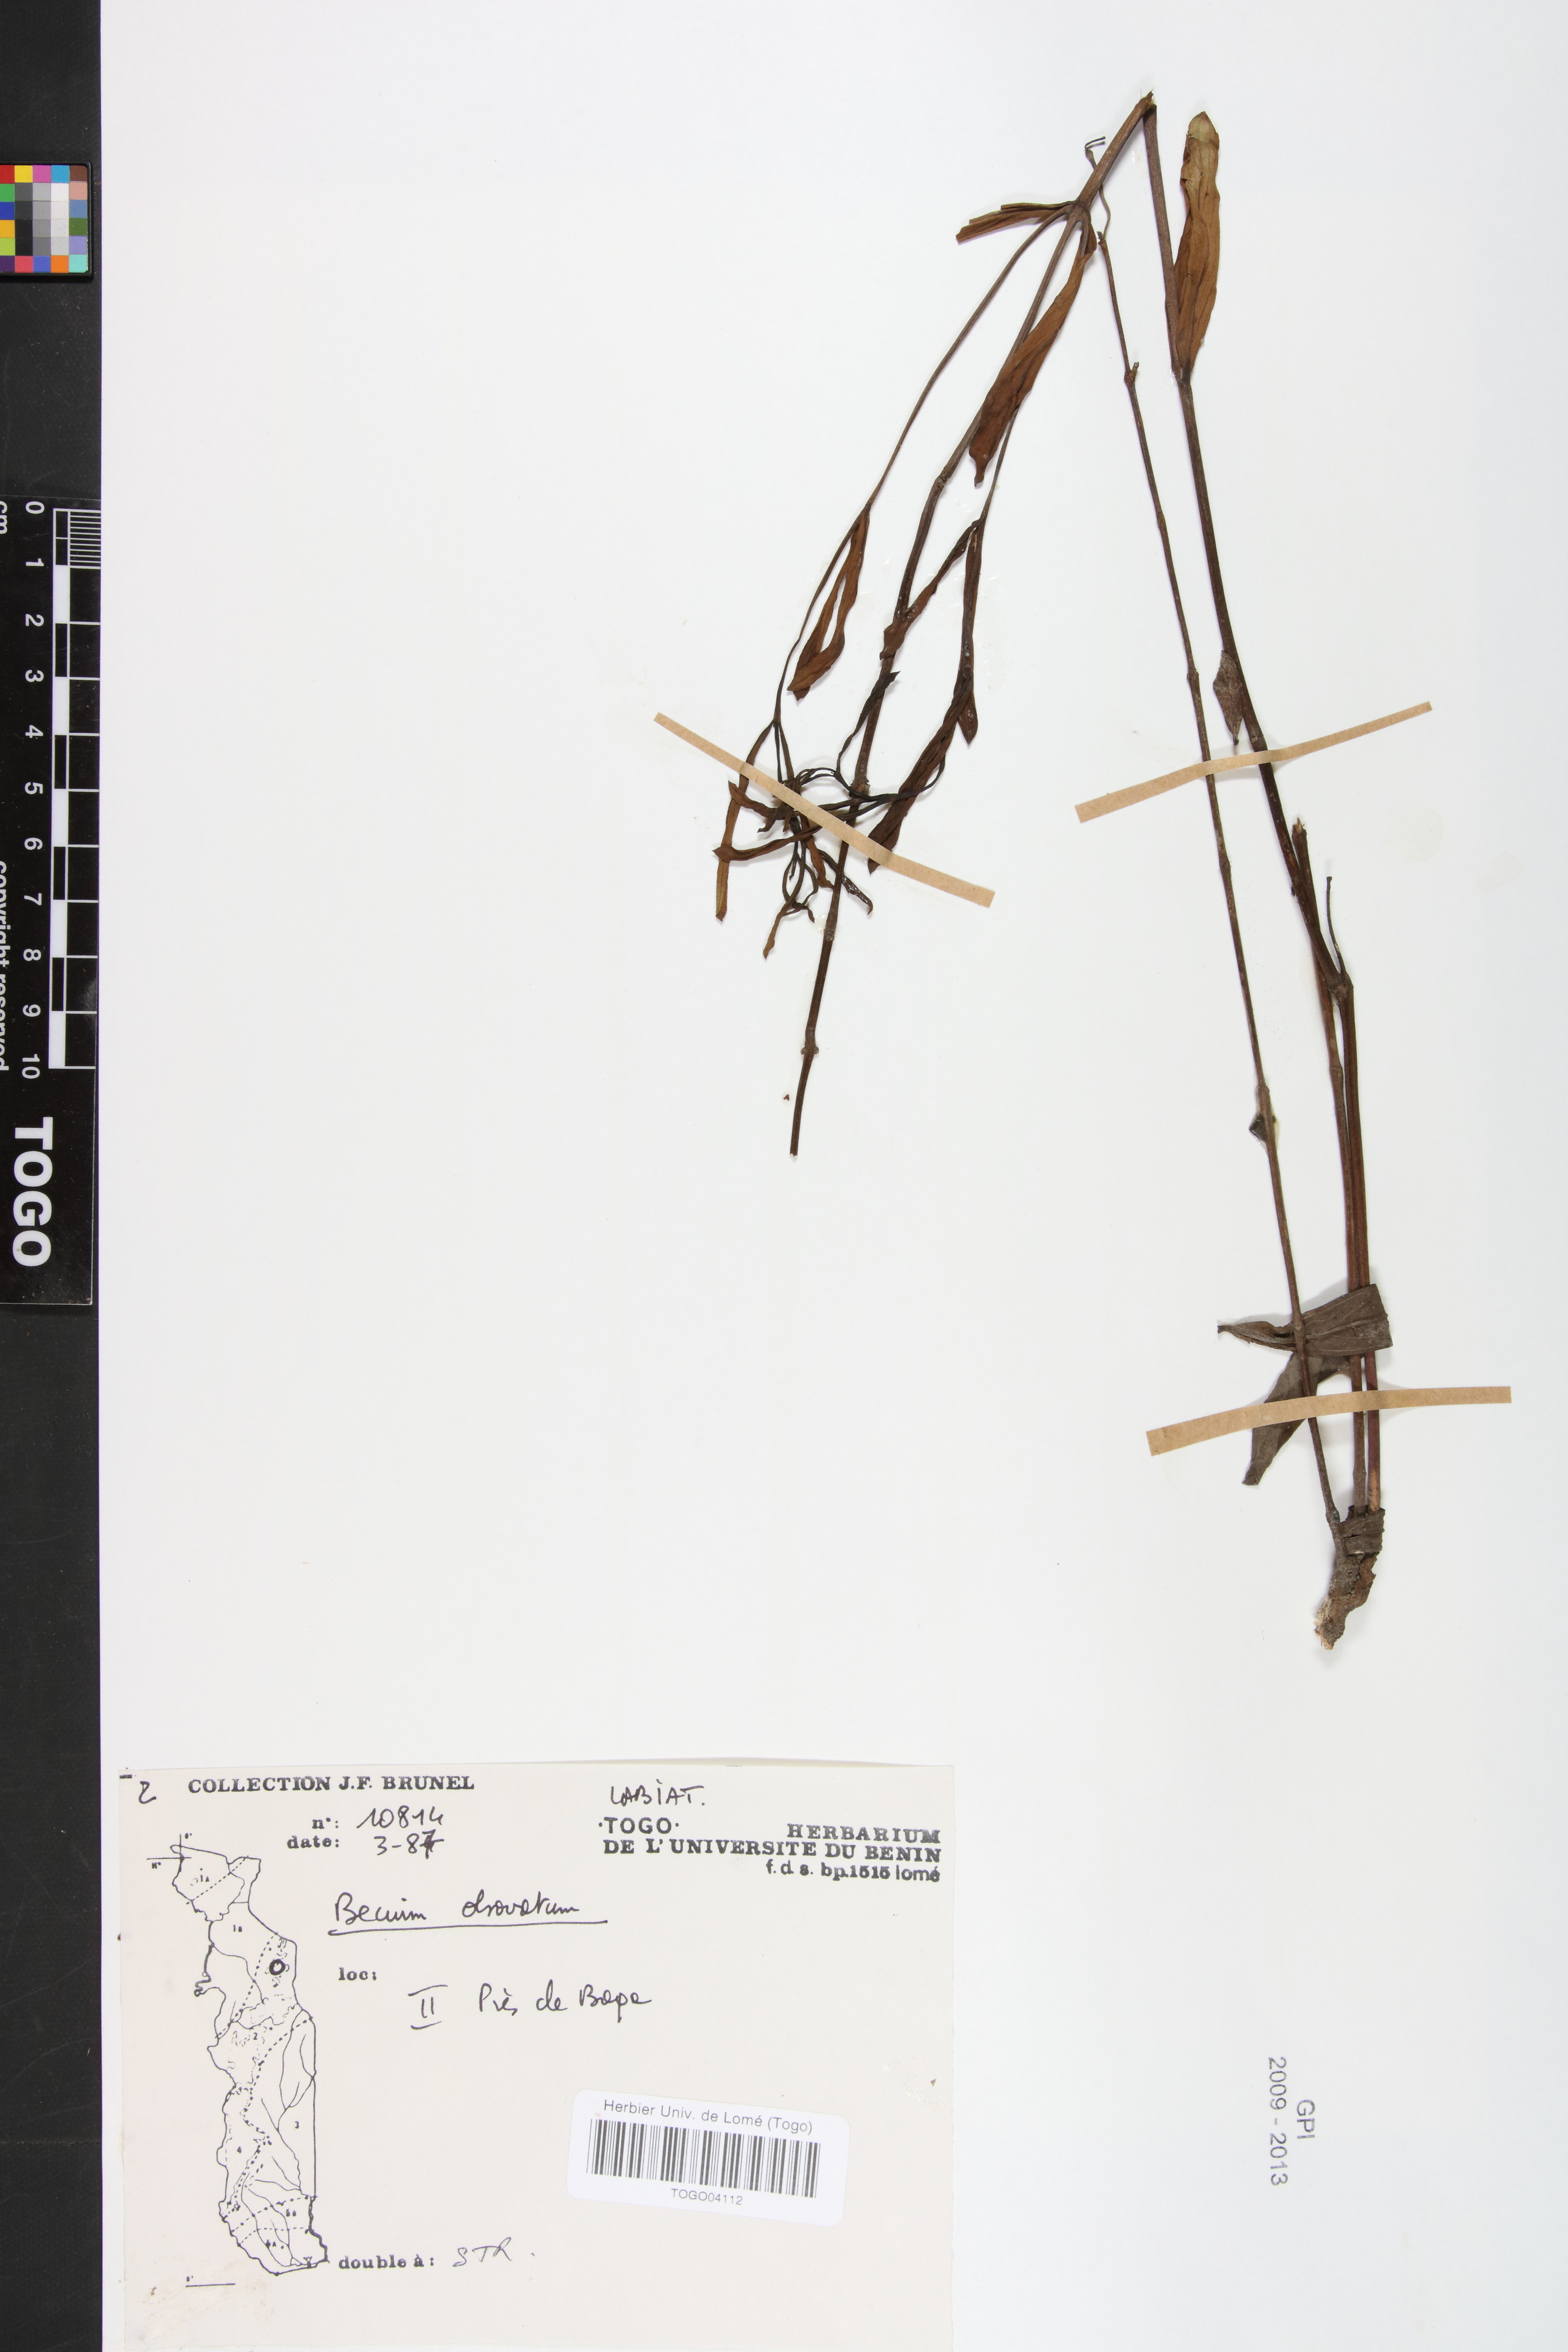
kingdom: Plantae
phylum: Tracheophyta
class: Magnoliopsida
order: Lamiales
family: Lamiaceae
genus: Ocimum
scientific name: Ocimum obovatum
